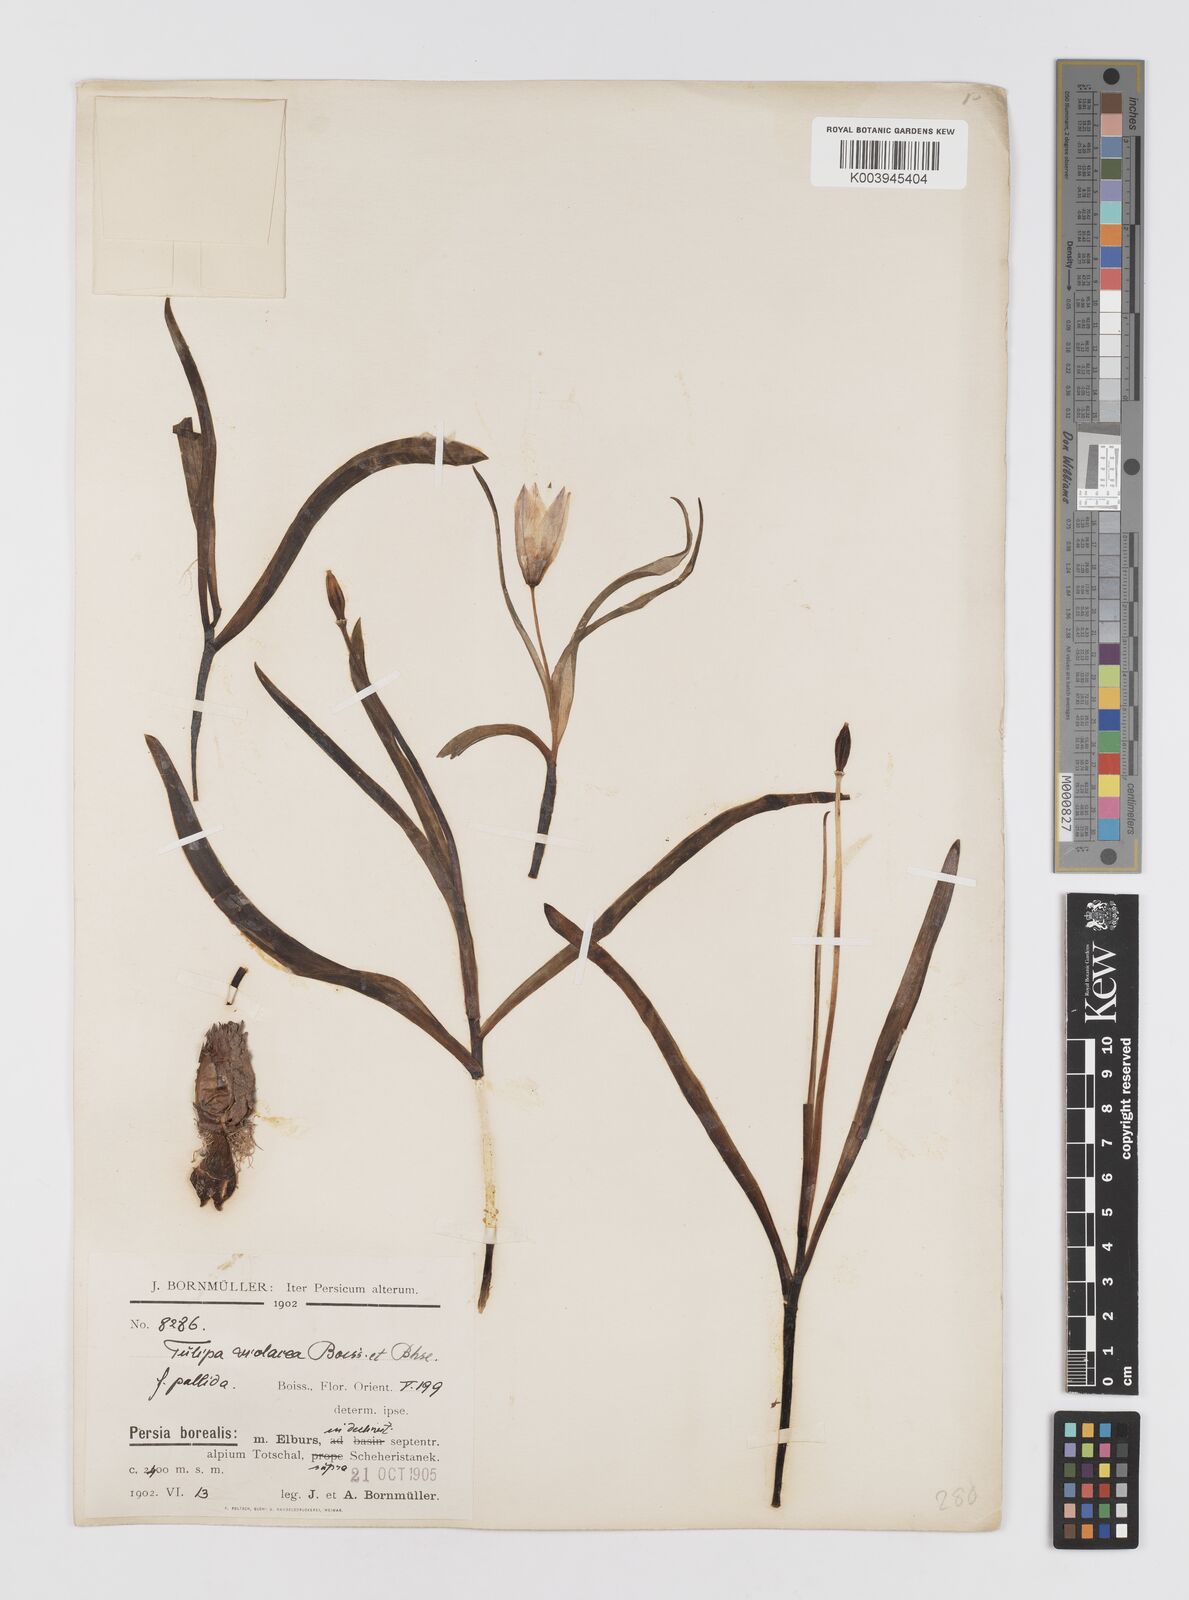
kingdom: Plantae
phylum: Tracheophyta
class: Liliopsida
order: Liliales
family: Liliaceae
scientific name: Liliaceae
